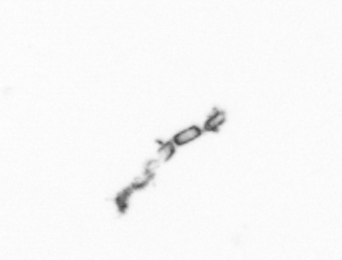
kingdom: Chromista
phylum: Ochrophyta
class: Bacillariophyceae
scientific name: Bacillariophyceae
